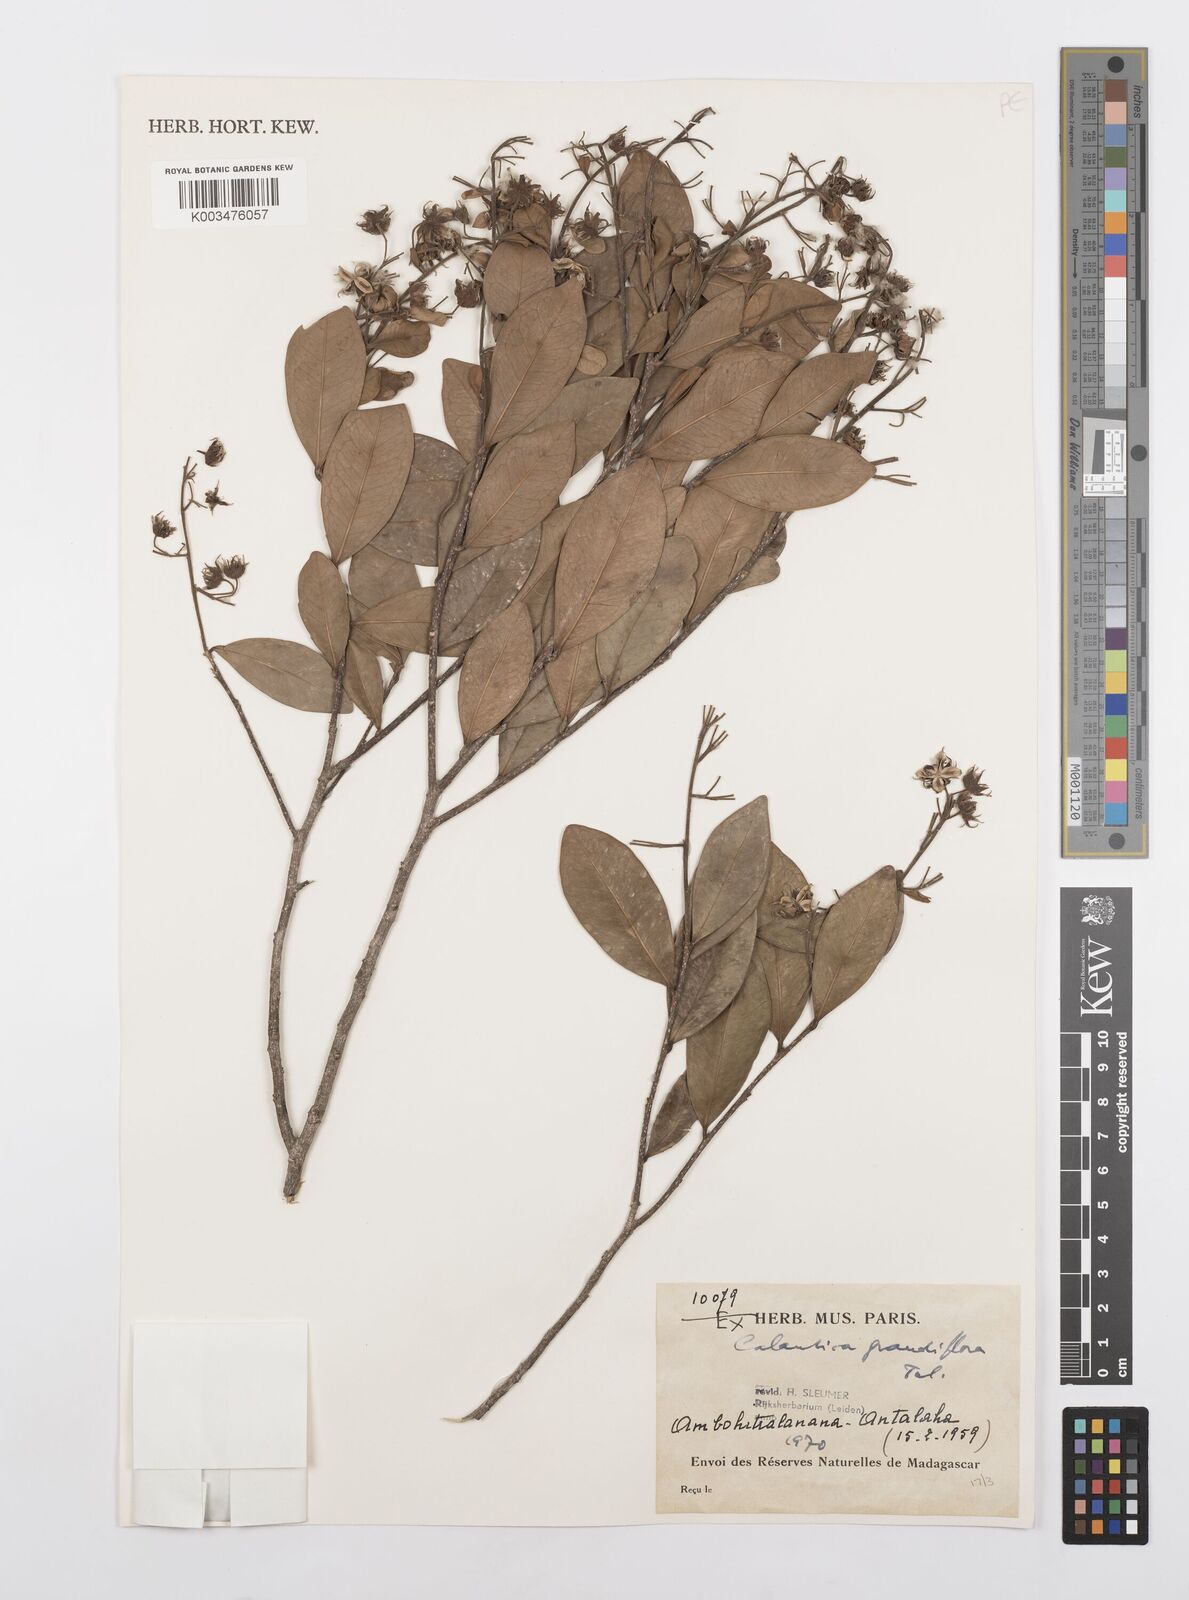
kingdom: Plantae
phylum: Tracheophyta
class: Magnoliopsida
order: Malpighiales
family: Salicaceae
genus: Calantica
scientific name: Calantica grandiflora
